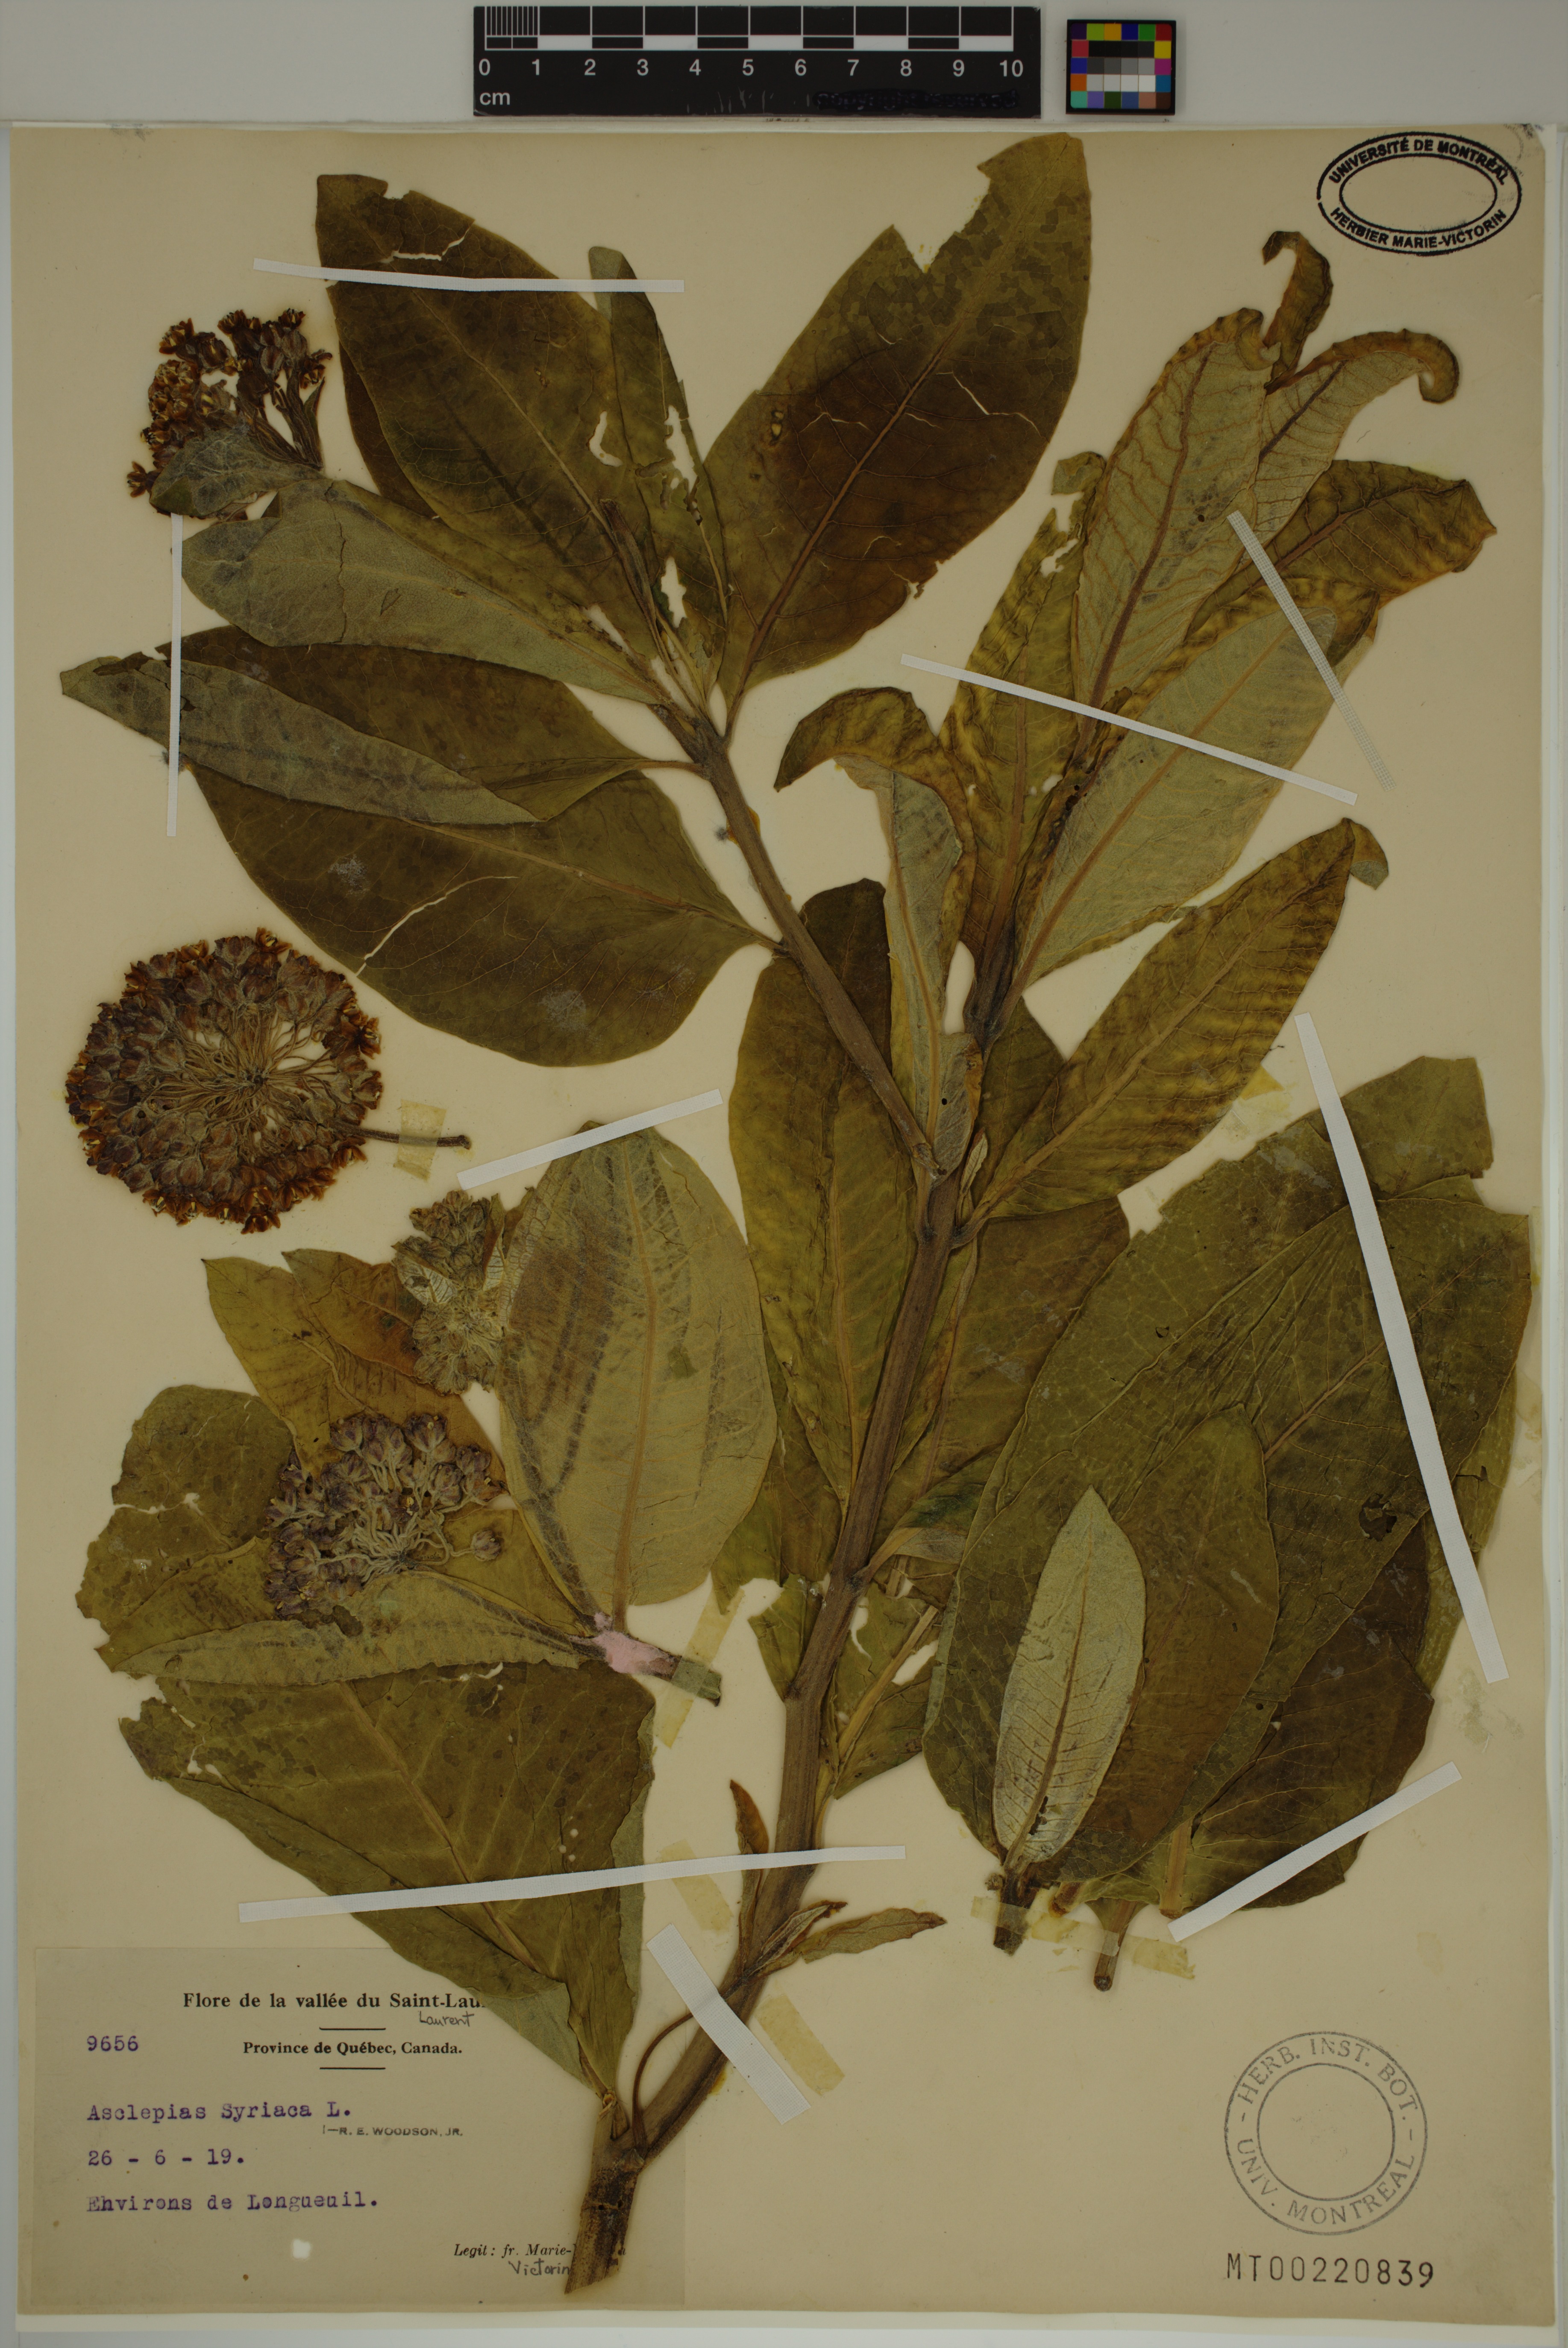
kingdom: Plantae
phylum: Tracheophyta
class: Magnoliopsida
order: Gentianales
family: Apocynaceae
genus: Asclepias
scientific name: Asclepias syriaca
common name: Common milkweed
